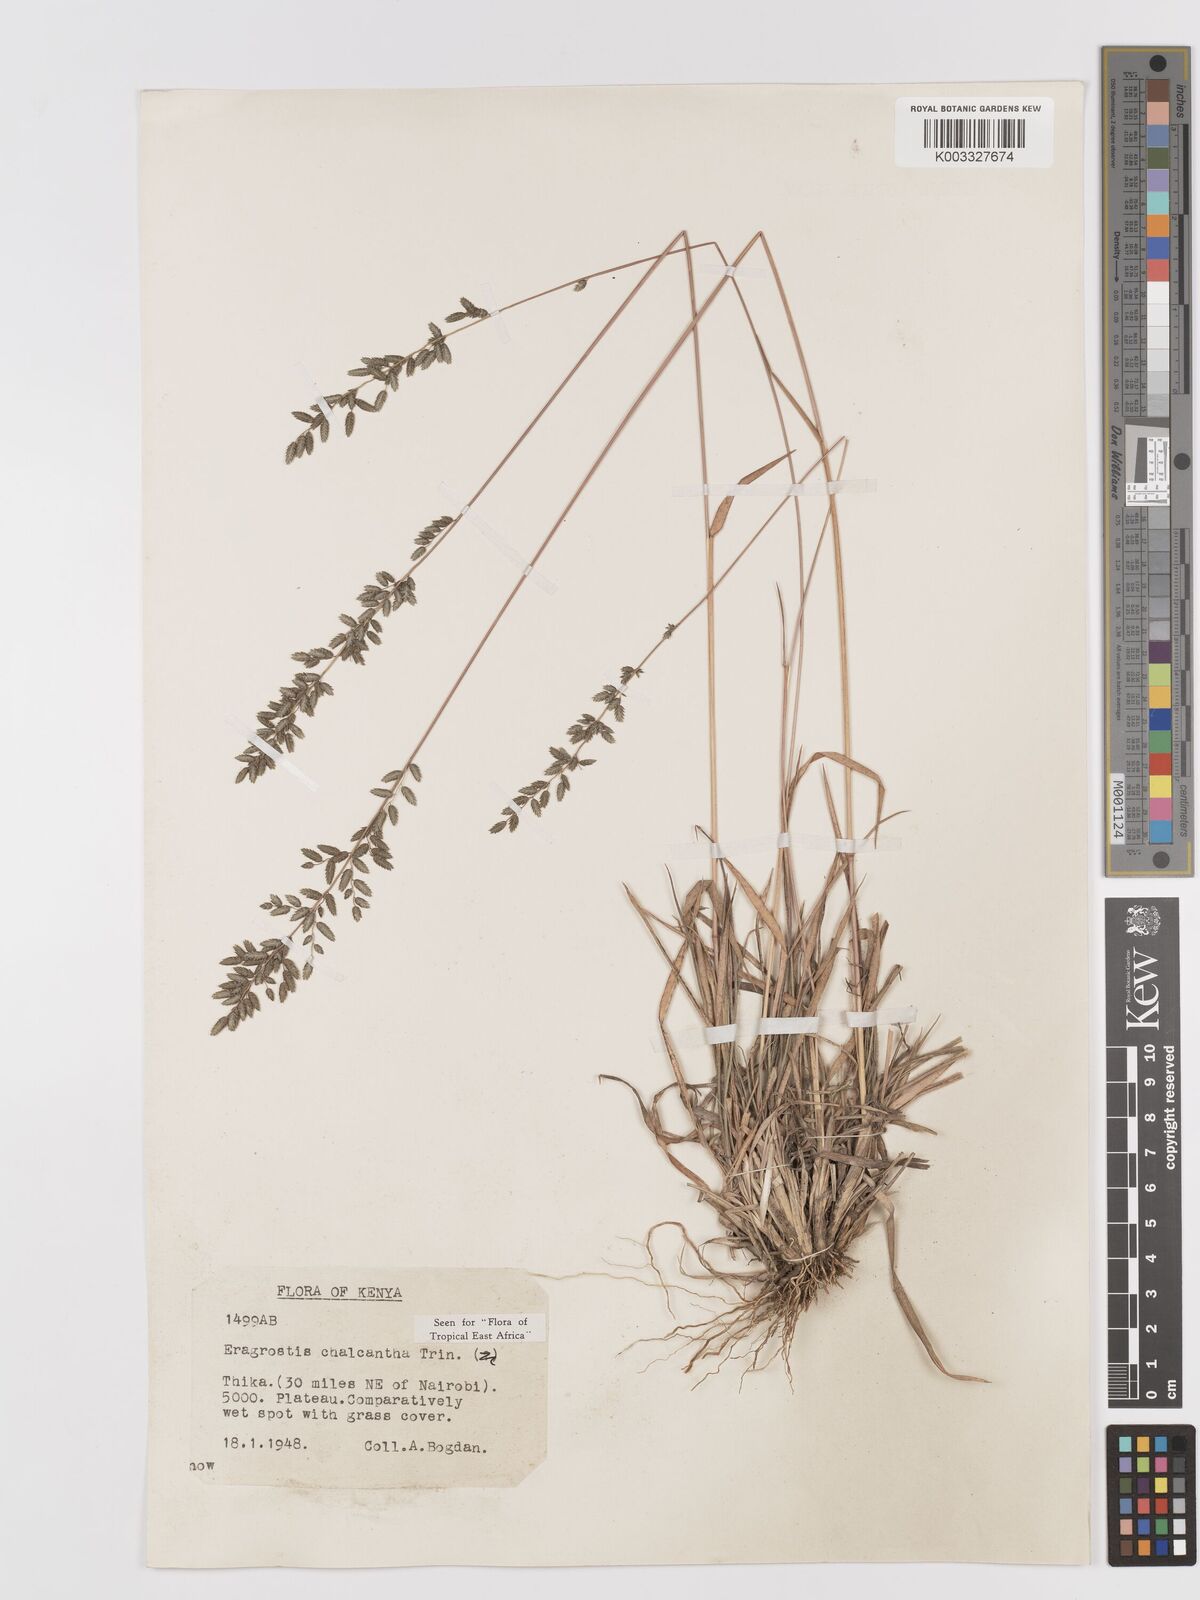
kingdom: Plantae
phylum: Tracheophyta
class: Liliopsida
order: Poales
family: Poaceae
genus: Eragrostis
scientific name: Eragrostis racemosa
